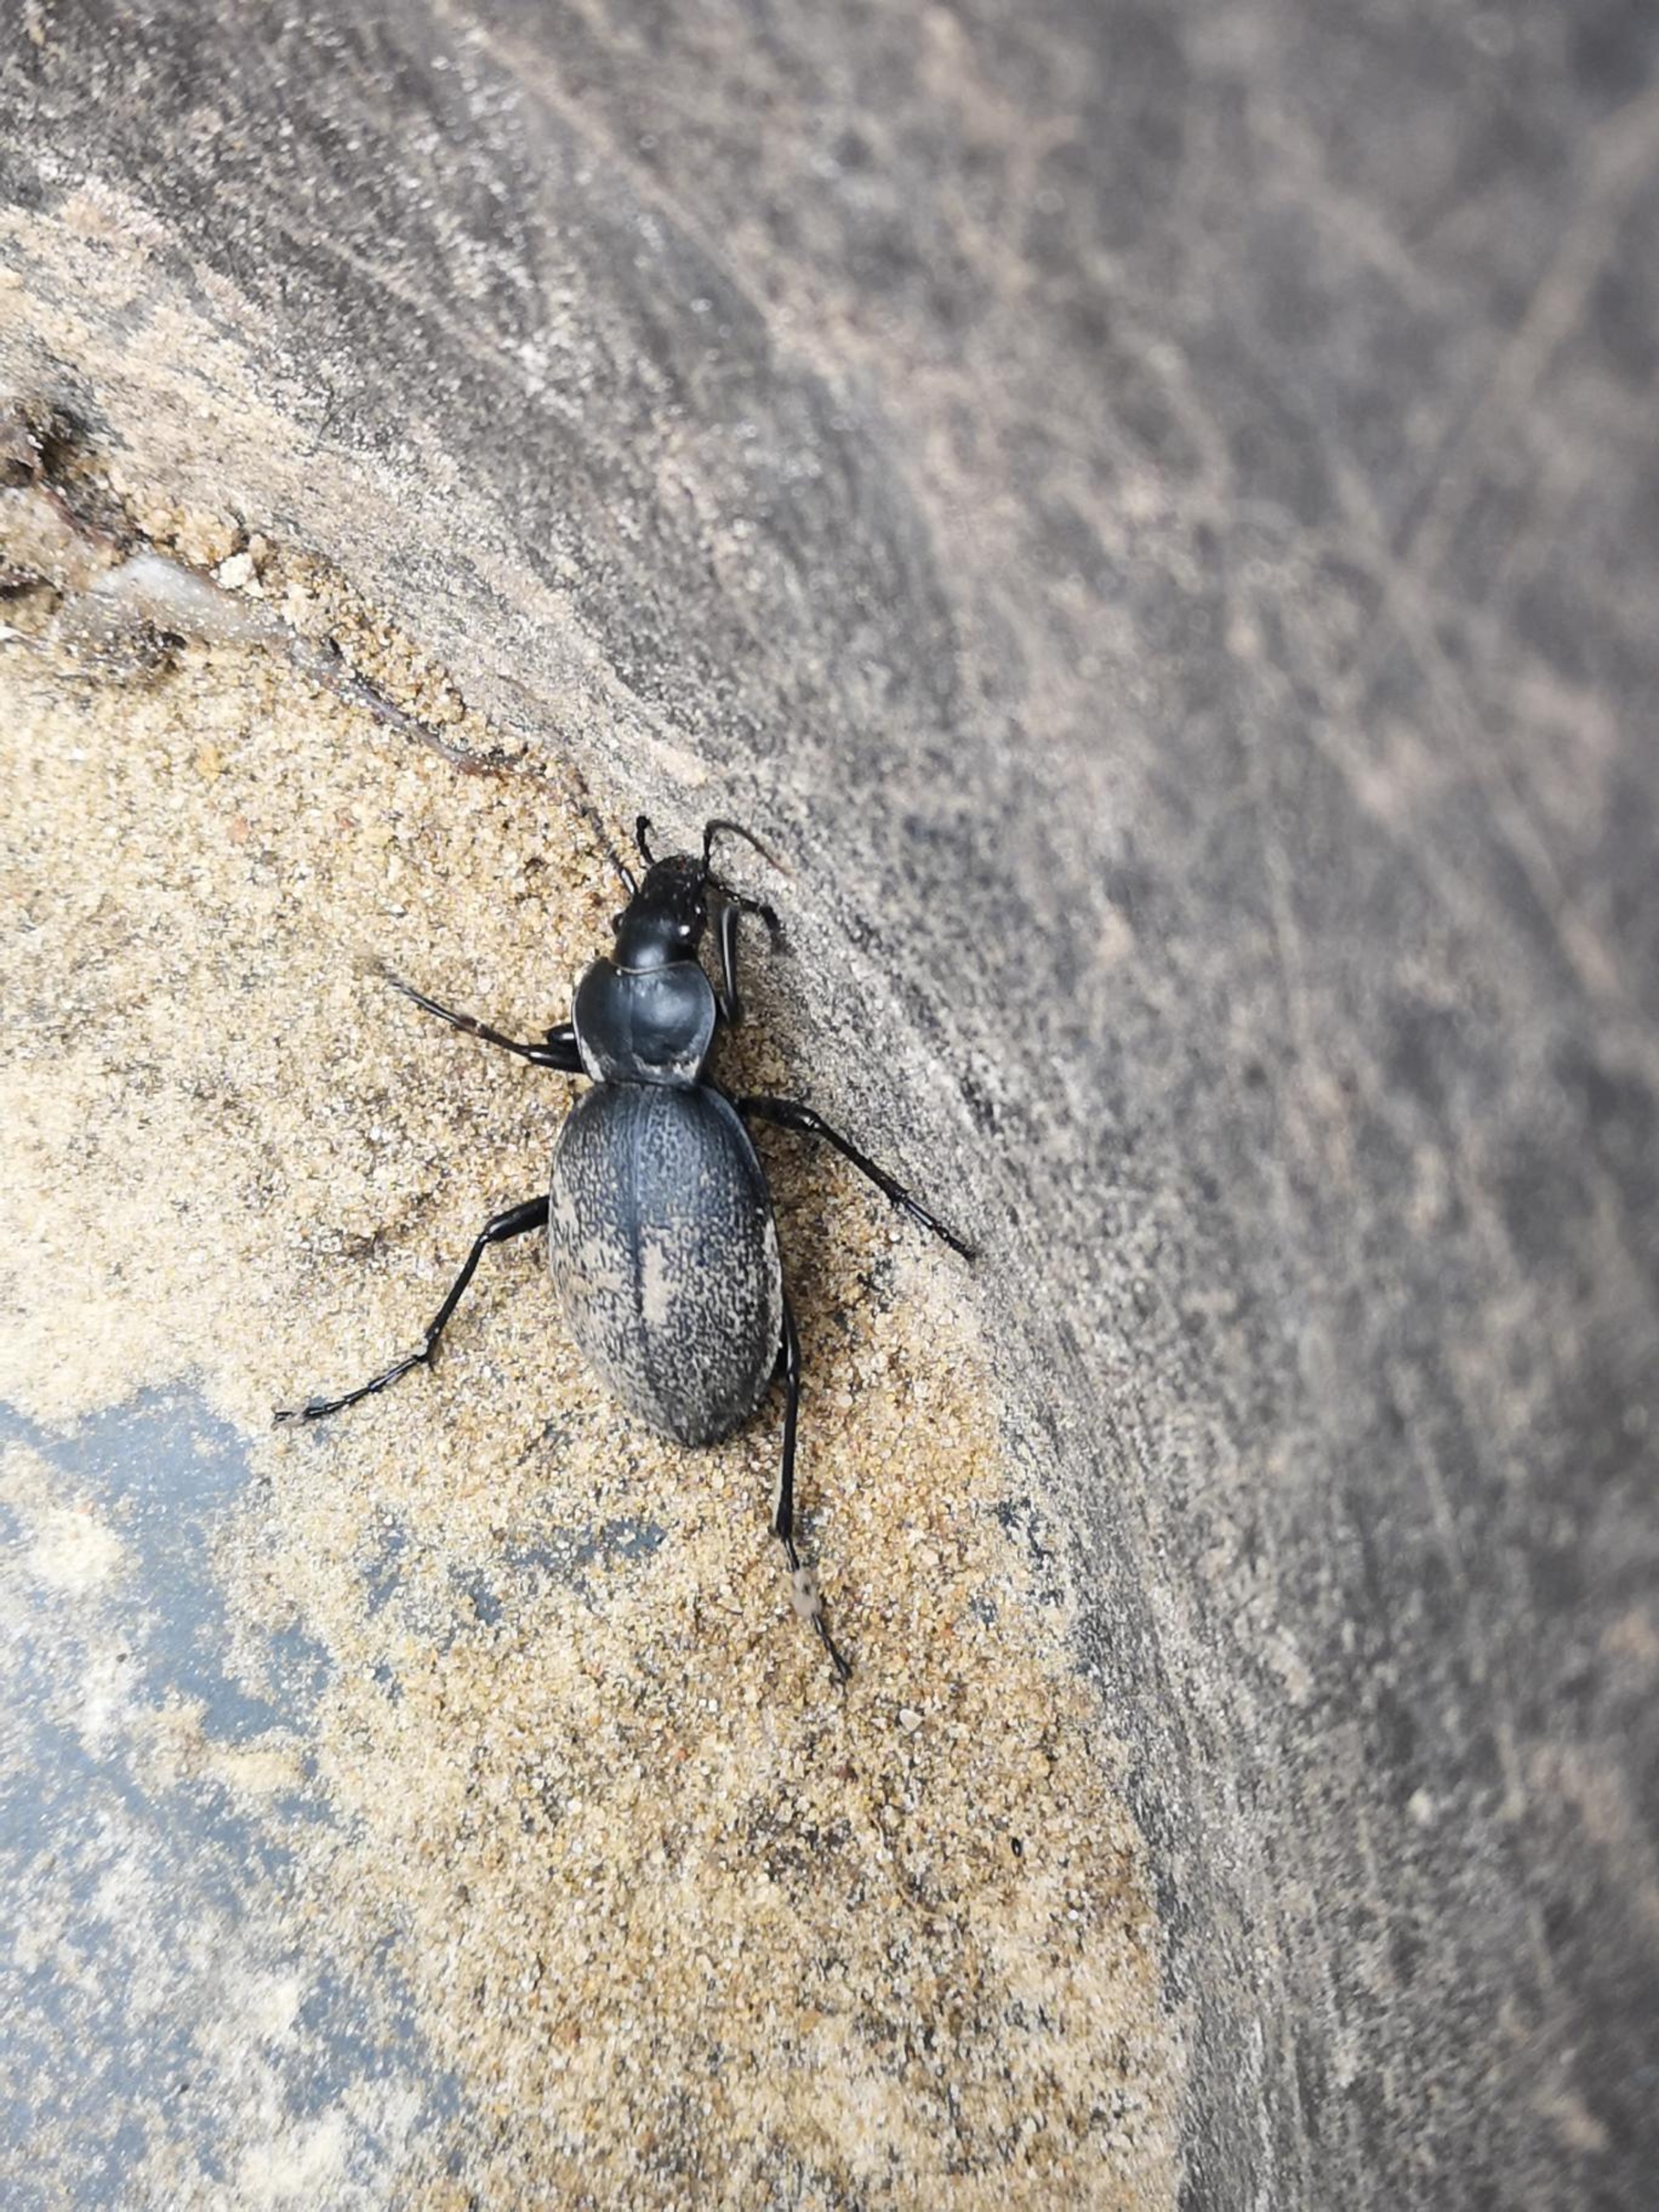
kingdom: Animalia
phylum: Arthropoda
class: Insecta
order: Coleoptera
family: Carabidae
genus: Carabus
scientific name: Carabus coriaceus
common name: Læderløber
